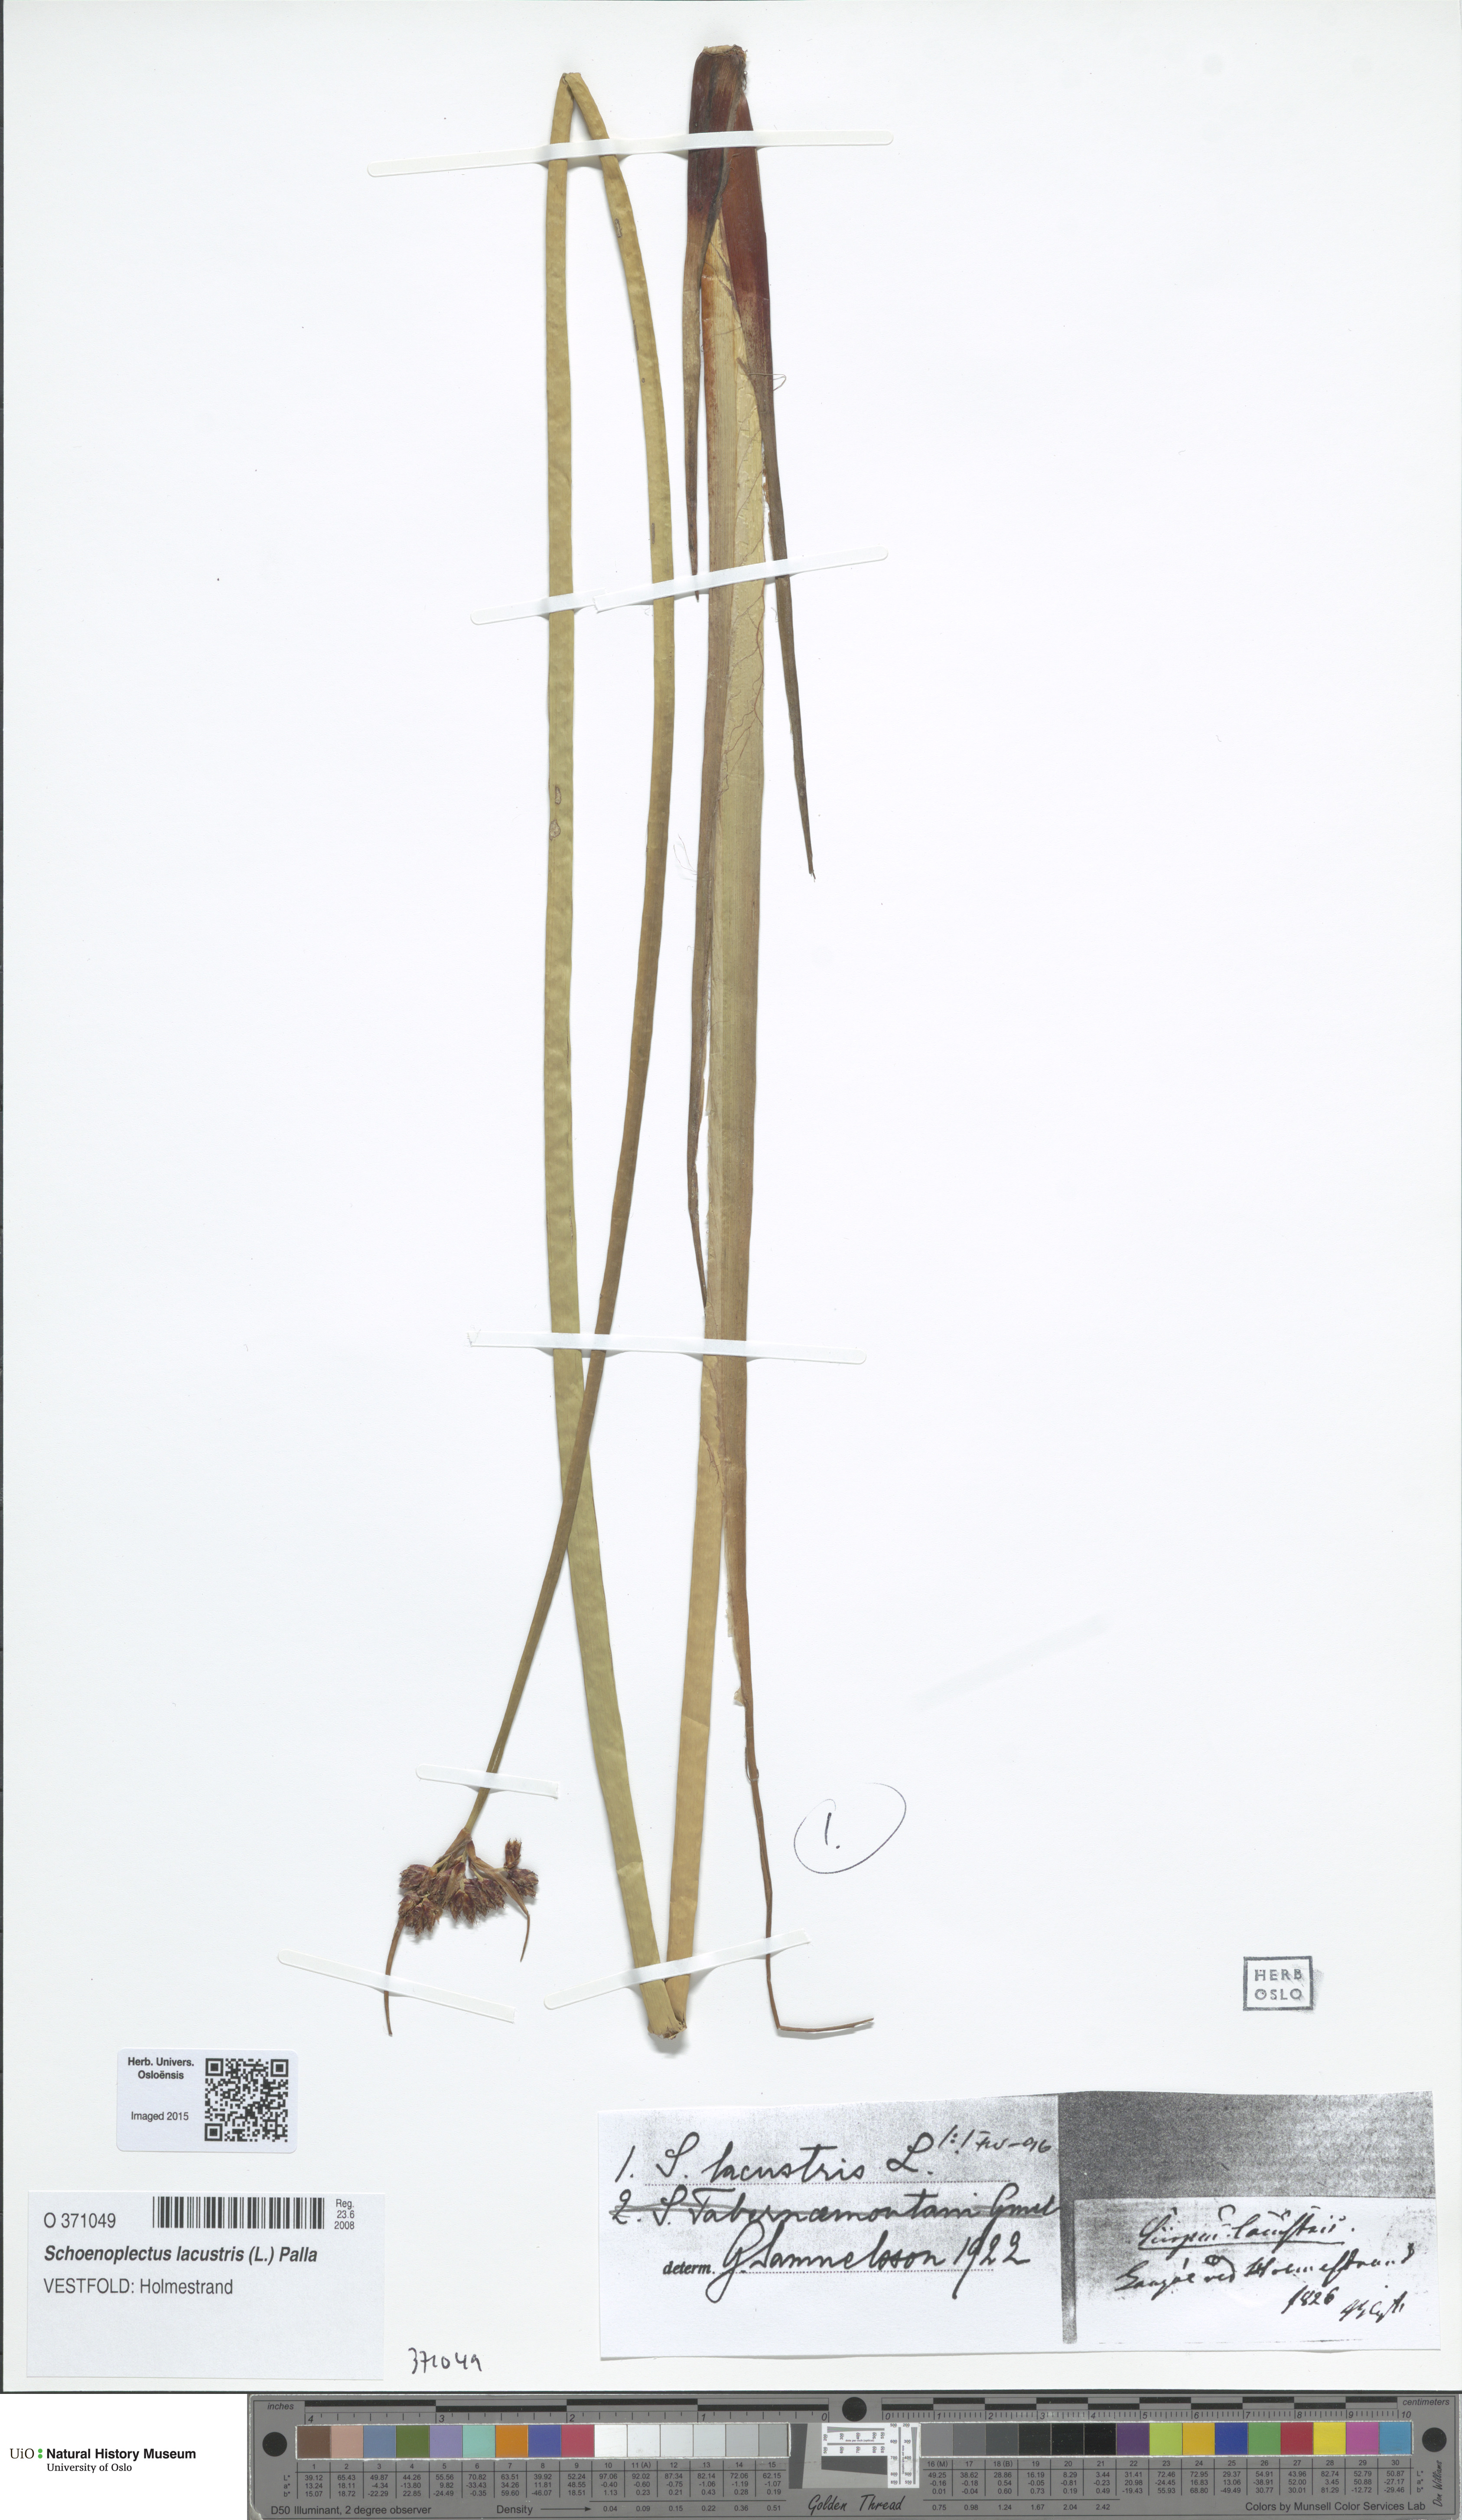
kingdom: Plantae
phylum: Tracheophyta
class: Liliopsida
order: Poales
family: Cyperaceae
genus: Schoenoplectus
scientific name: Schoenoplectus lacustris
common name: Common club-rush
